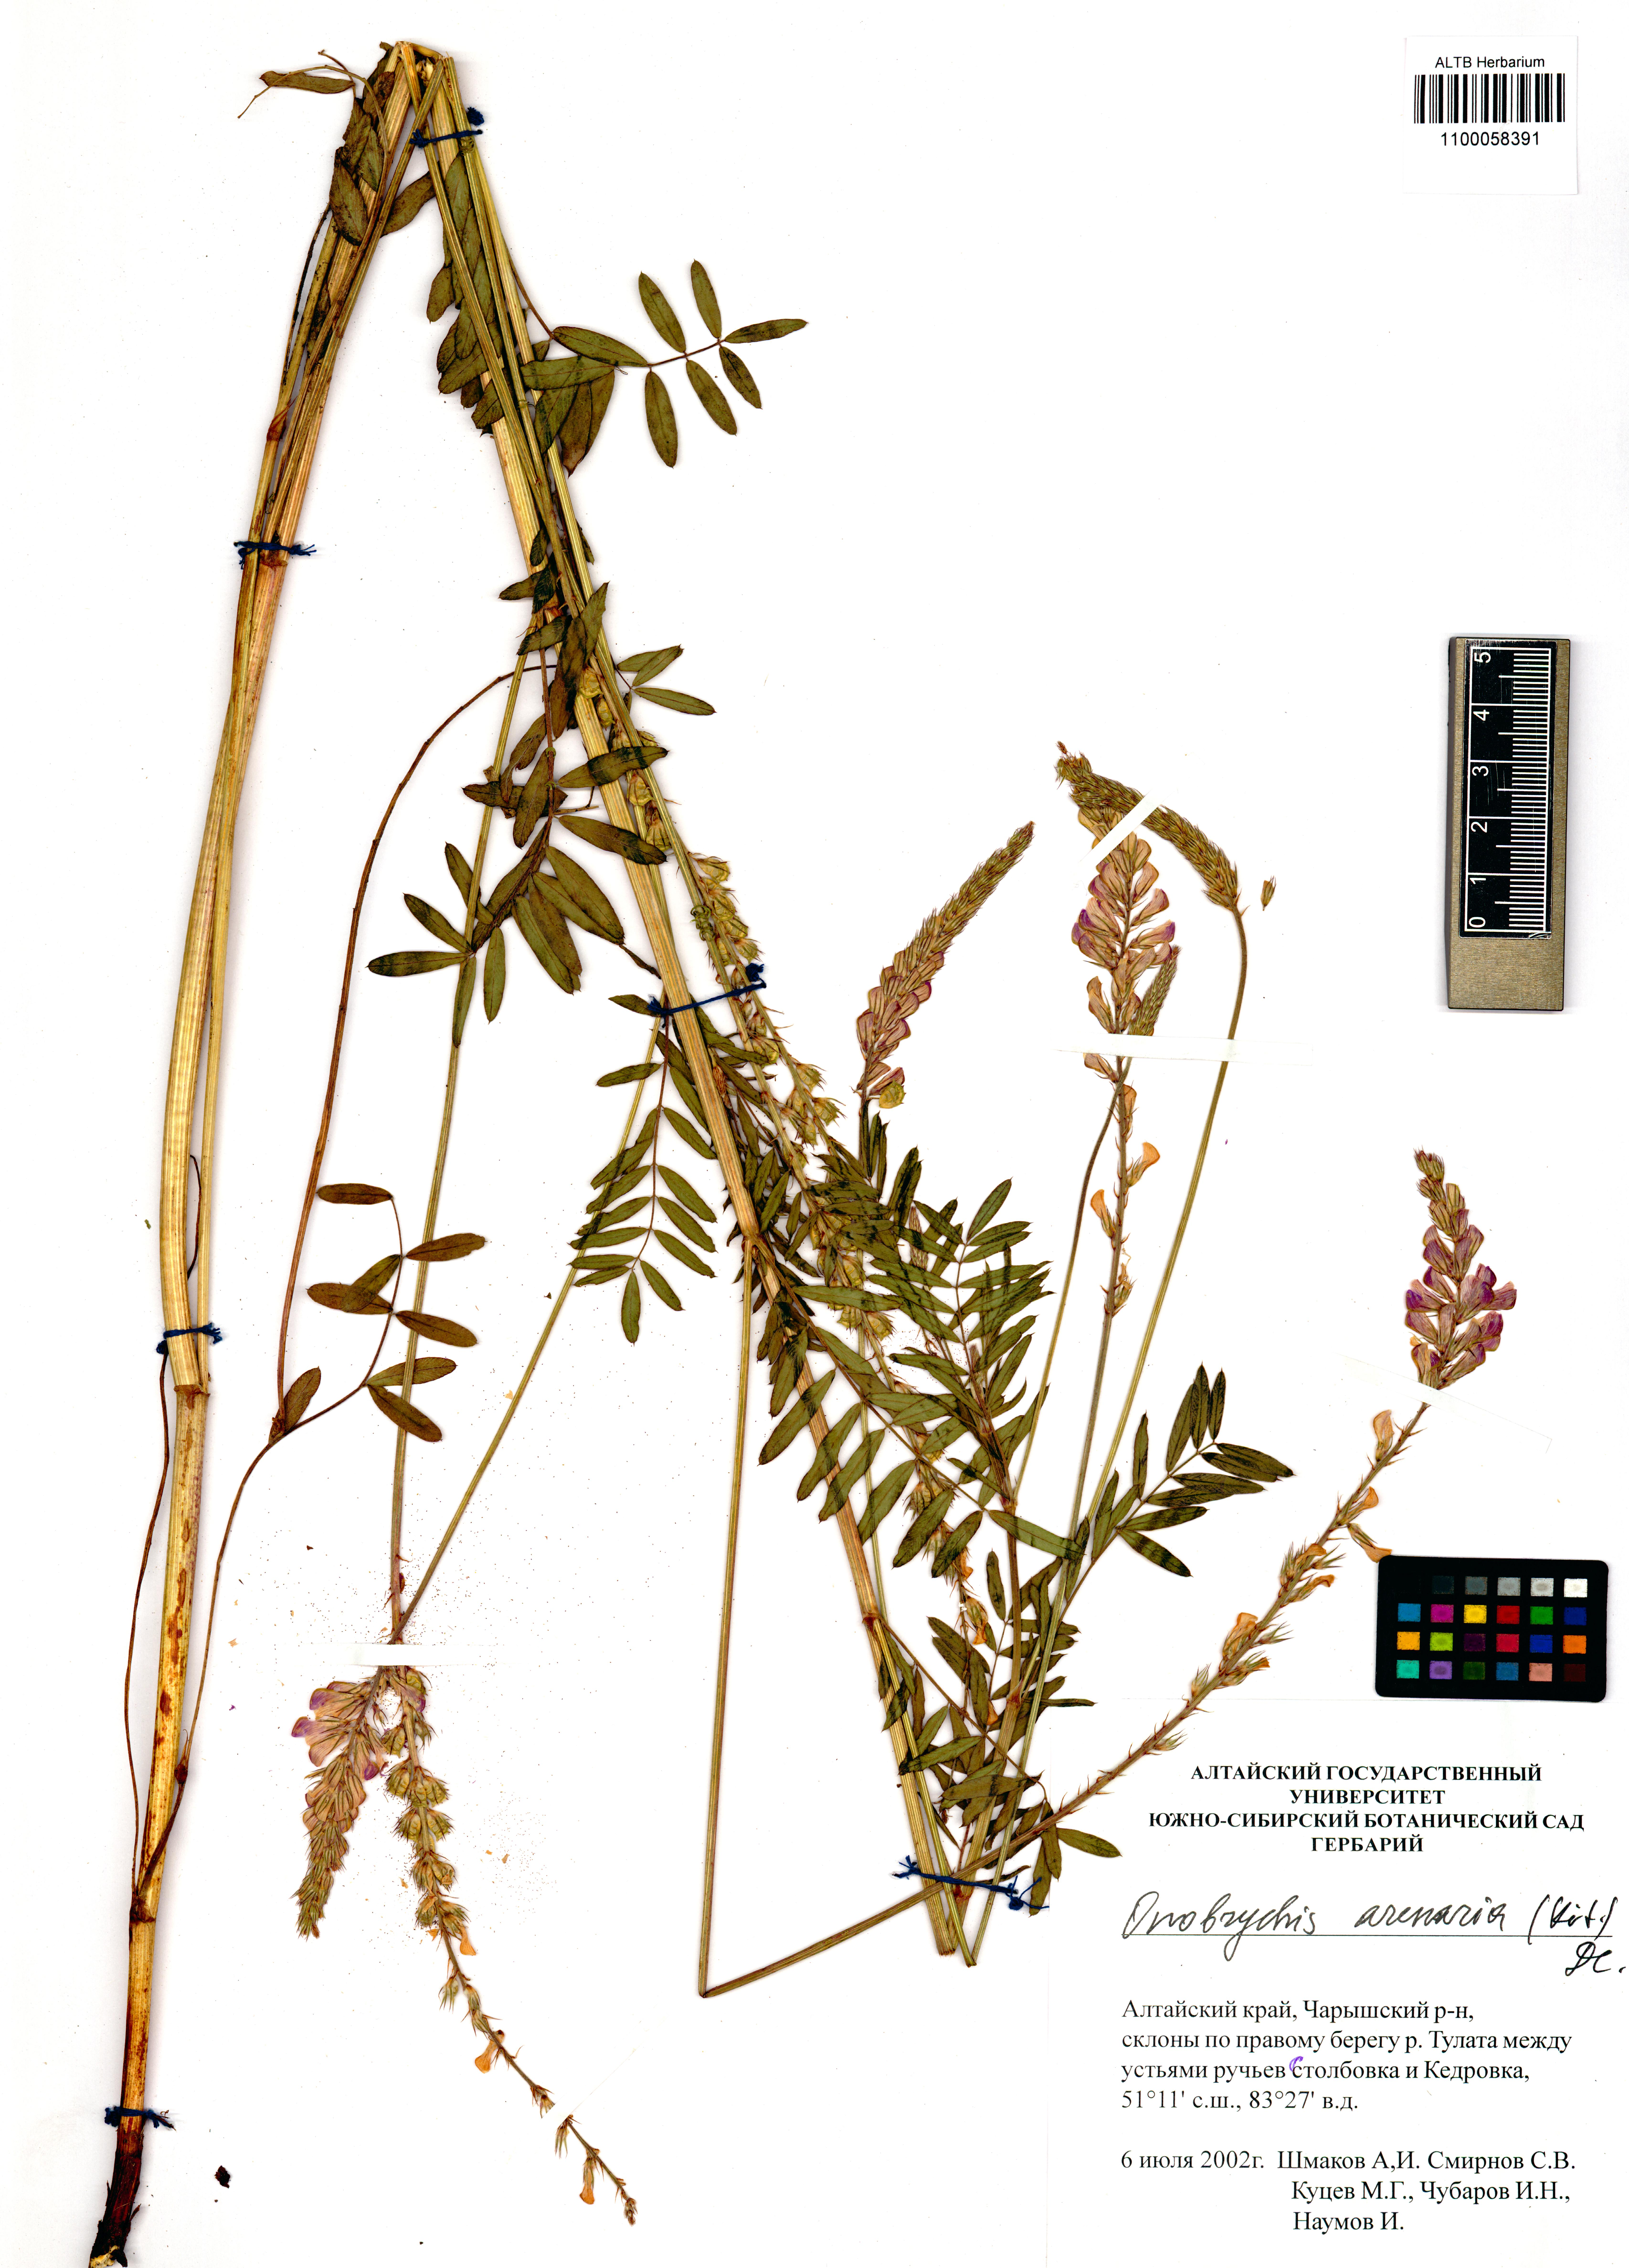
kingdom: Plantae
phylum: Tracheophyta
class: Magnoliopsida
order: Fabales
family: Fabaceae
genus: Onobrychis
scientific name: Onobrychis arenaria
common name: Sand esparcet
